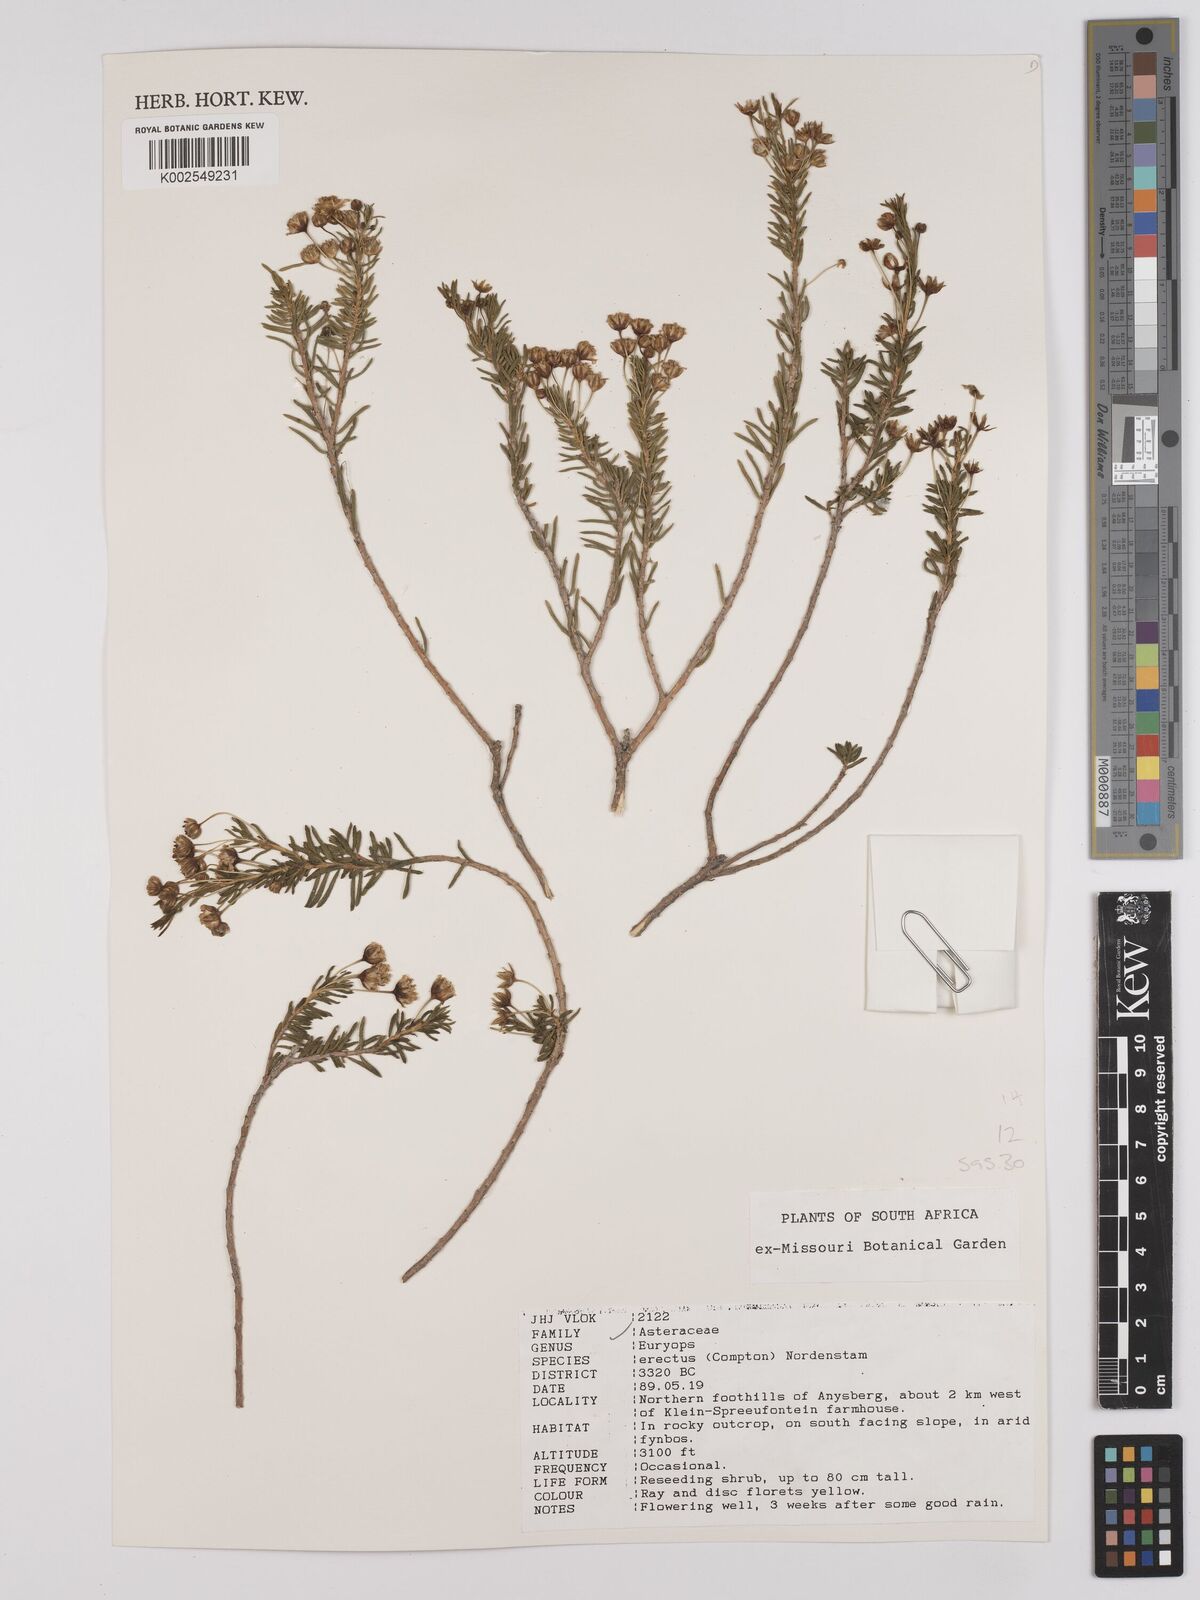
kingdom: Plantae
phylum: Tracheophyta
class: Magnoliopsida
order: Asterales
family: Asteraceae
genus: Euryops
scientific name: Euryops erectus
